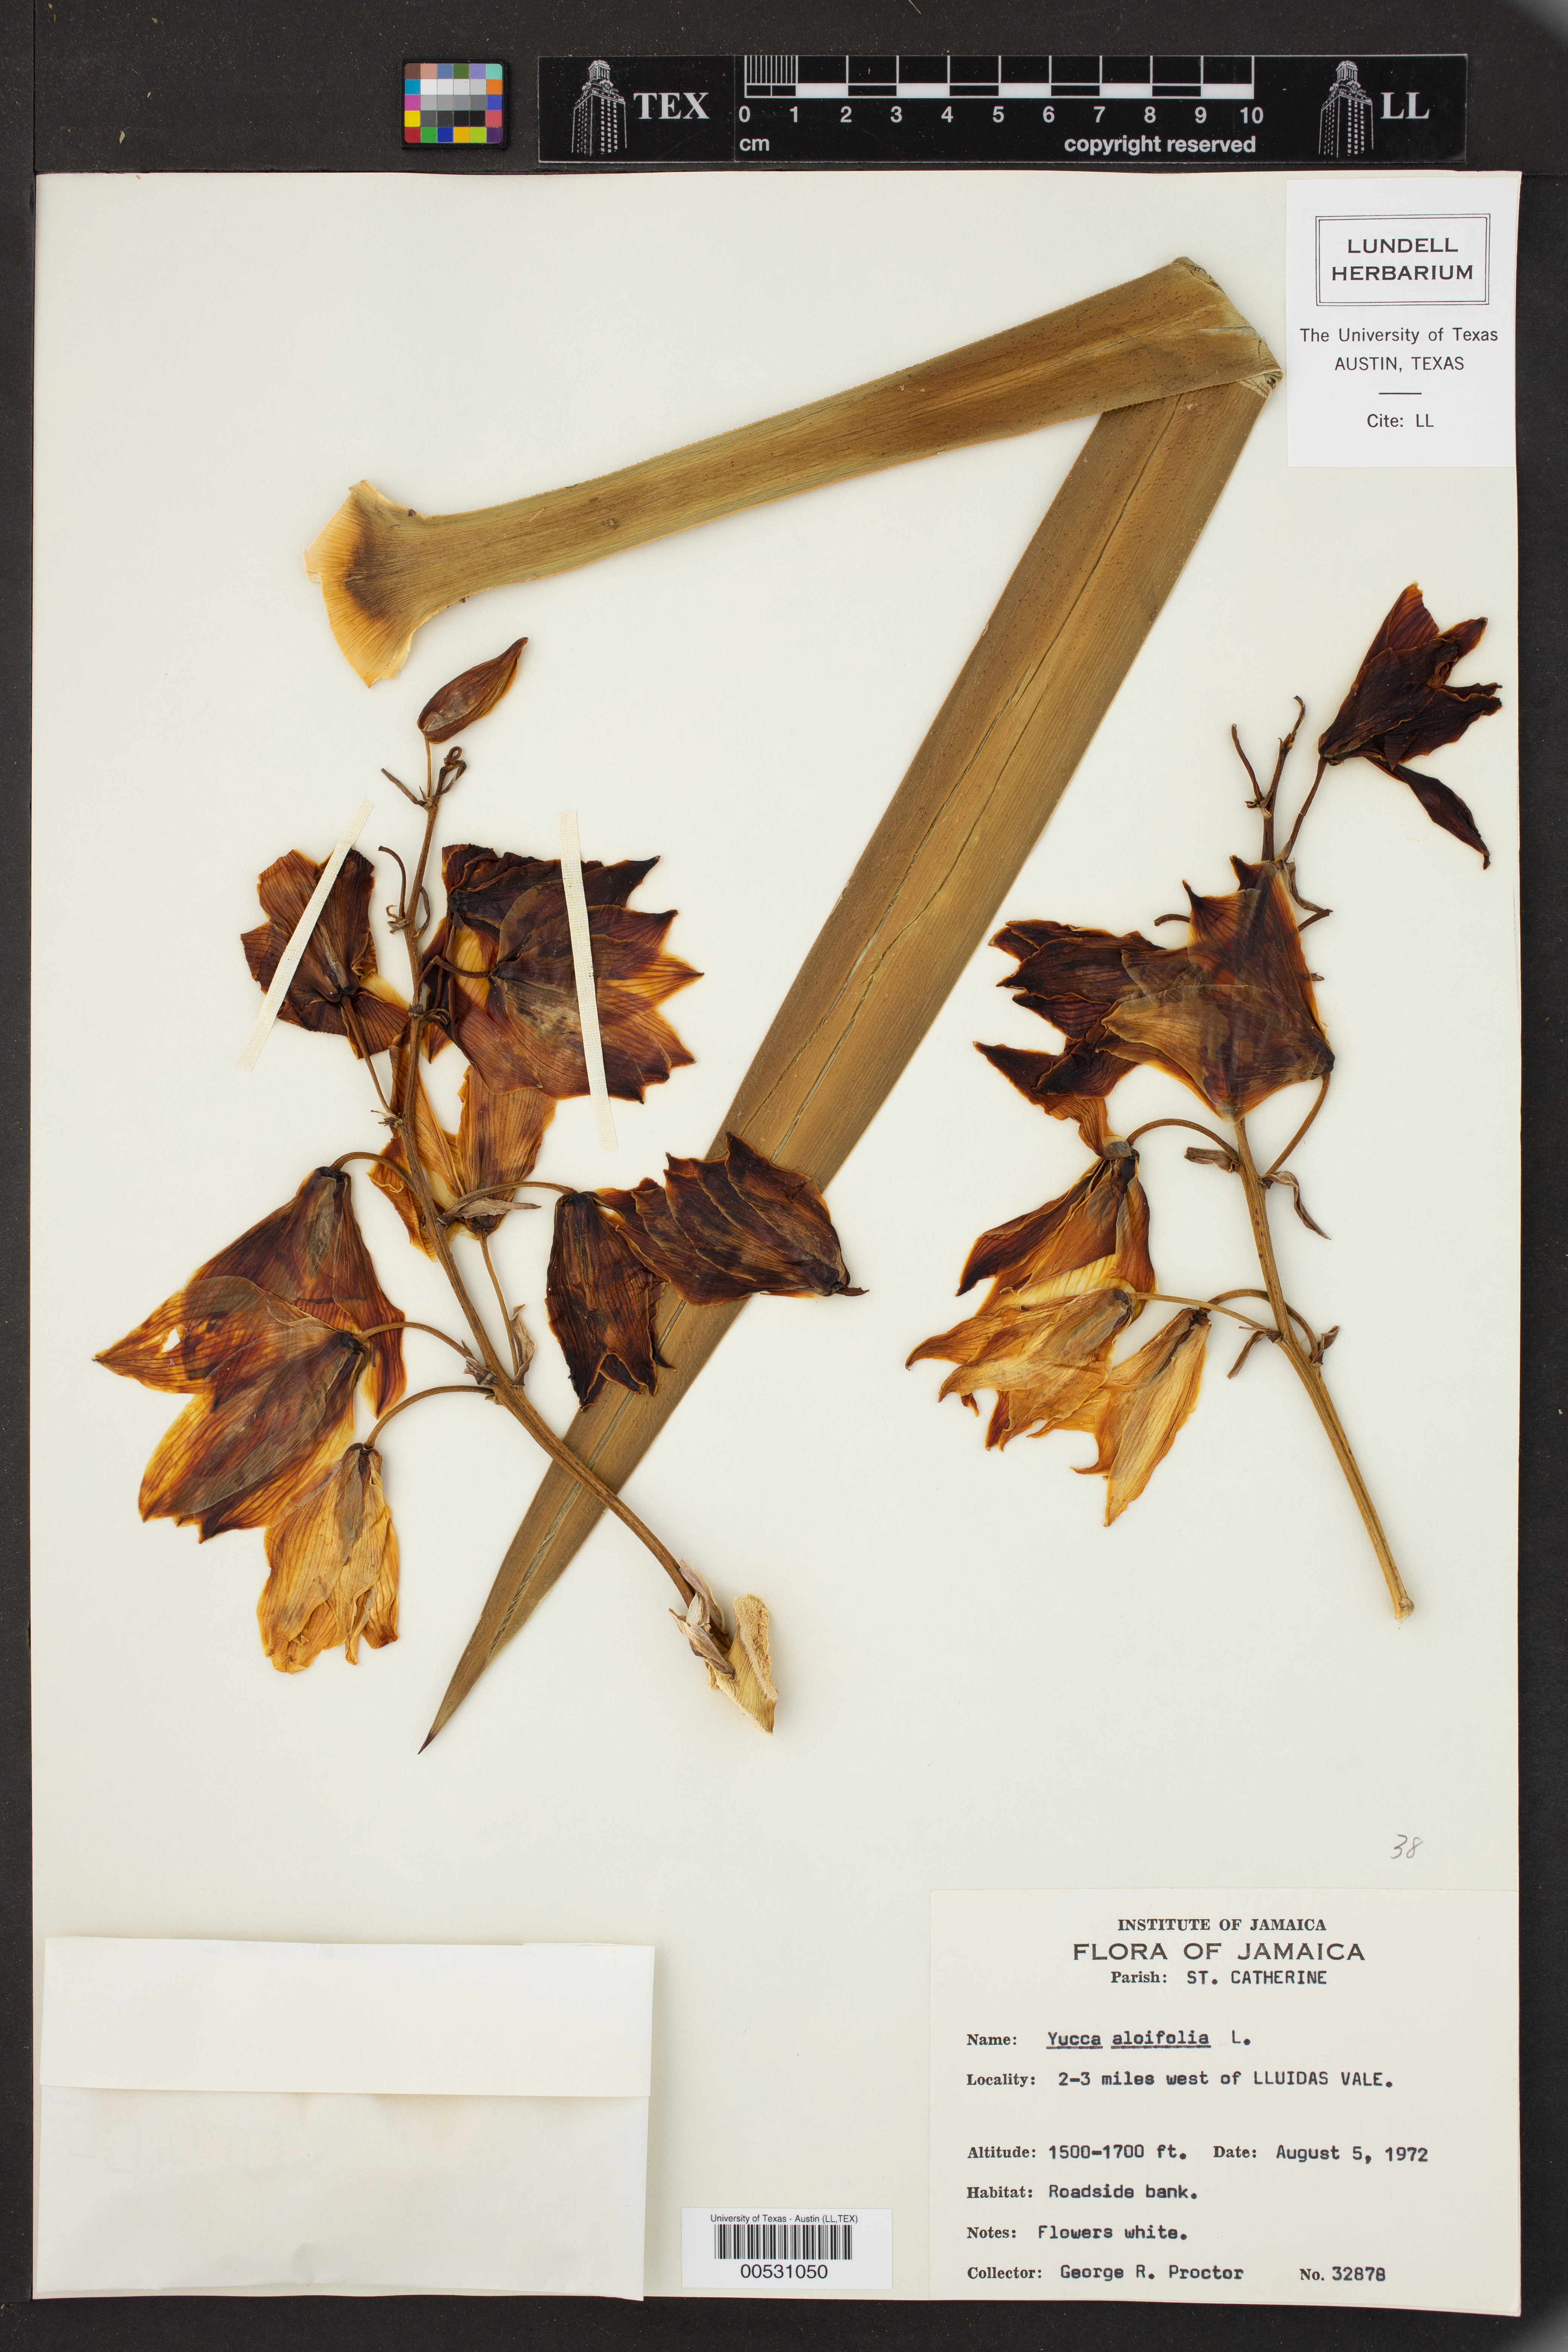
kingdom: Plantae
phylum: Tracheophyta
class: Liliopsida
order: Asparagales
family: Asparagaceae
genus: Yucca
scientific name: Yucca aloifolia
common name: Aloe yucca
